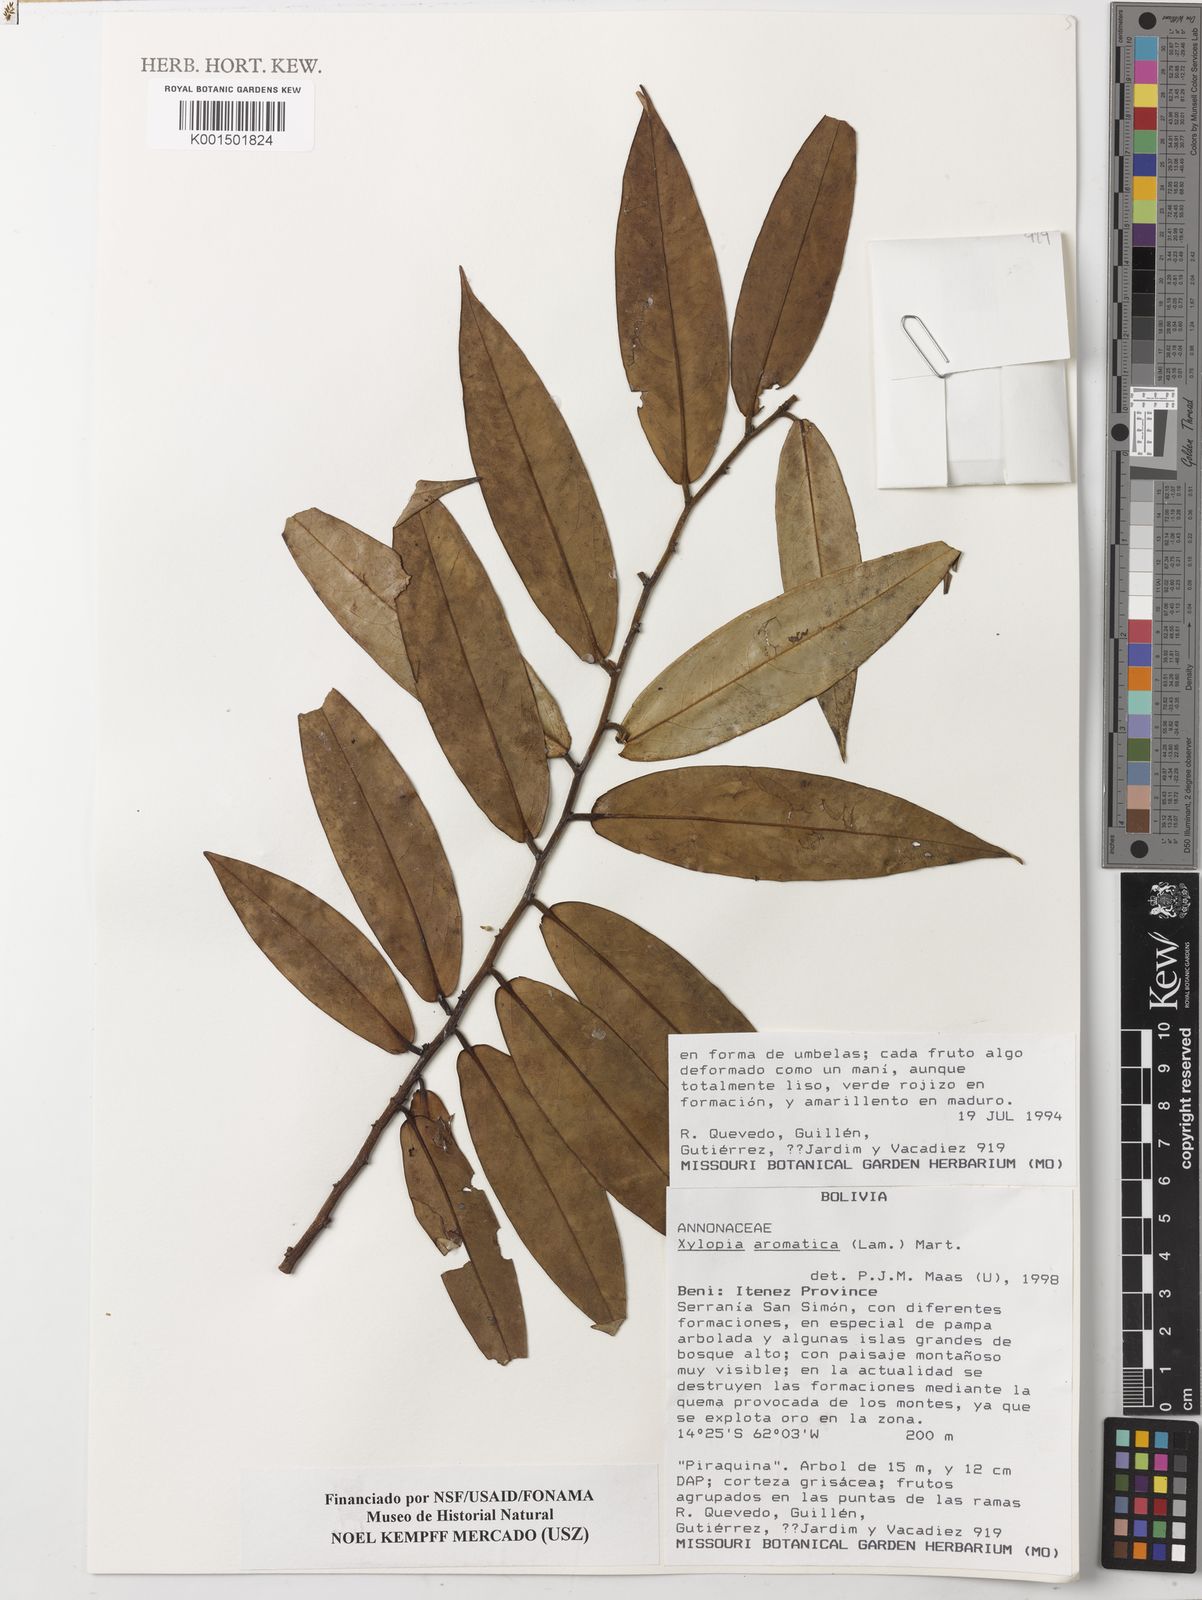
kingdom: Plantae
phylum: Tracheophyta
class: Magnoliopsida
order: Magnoliales
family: Annonaceae
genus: Xylopia
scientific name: Xylopia aromatica
